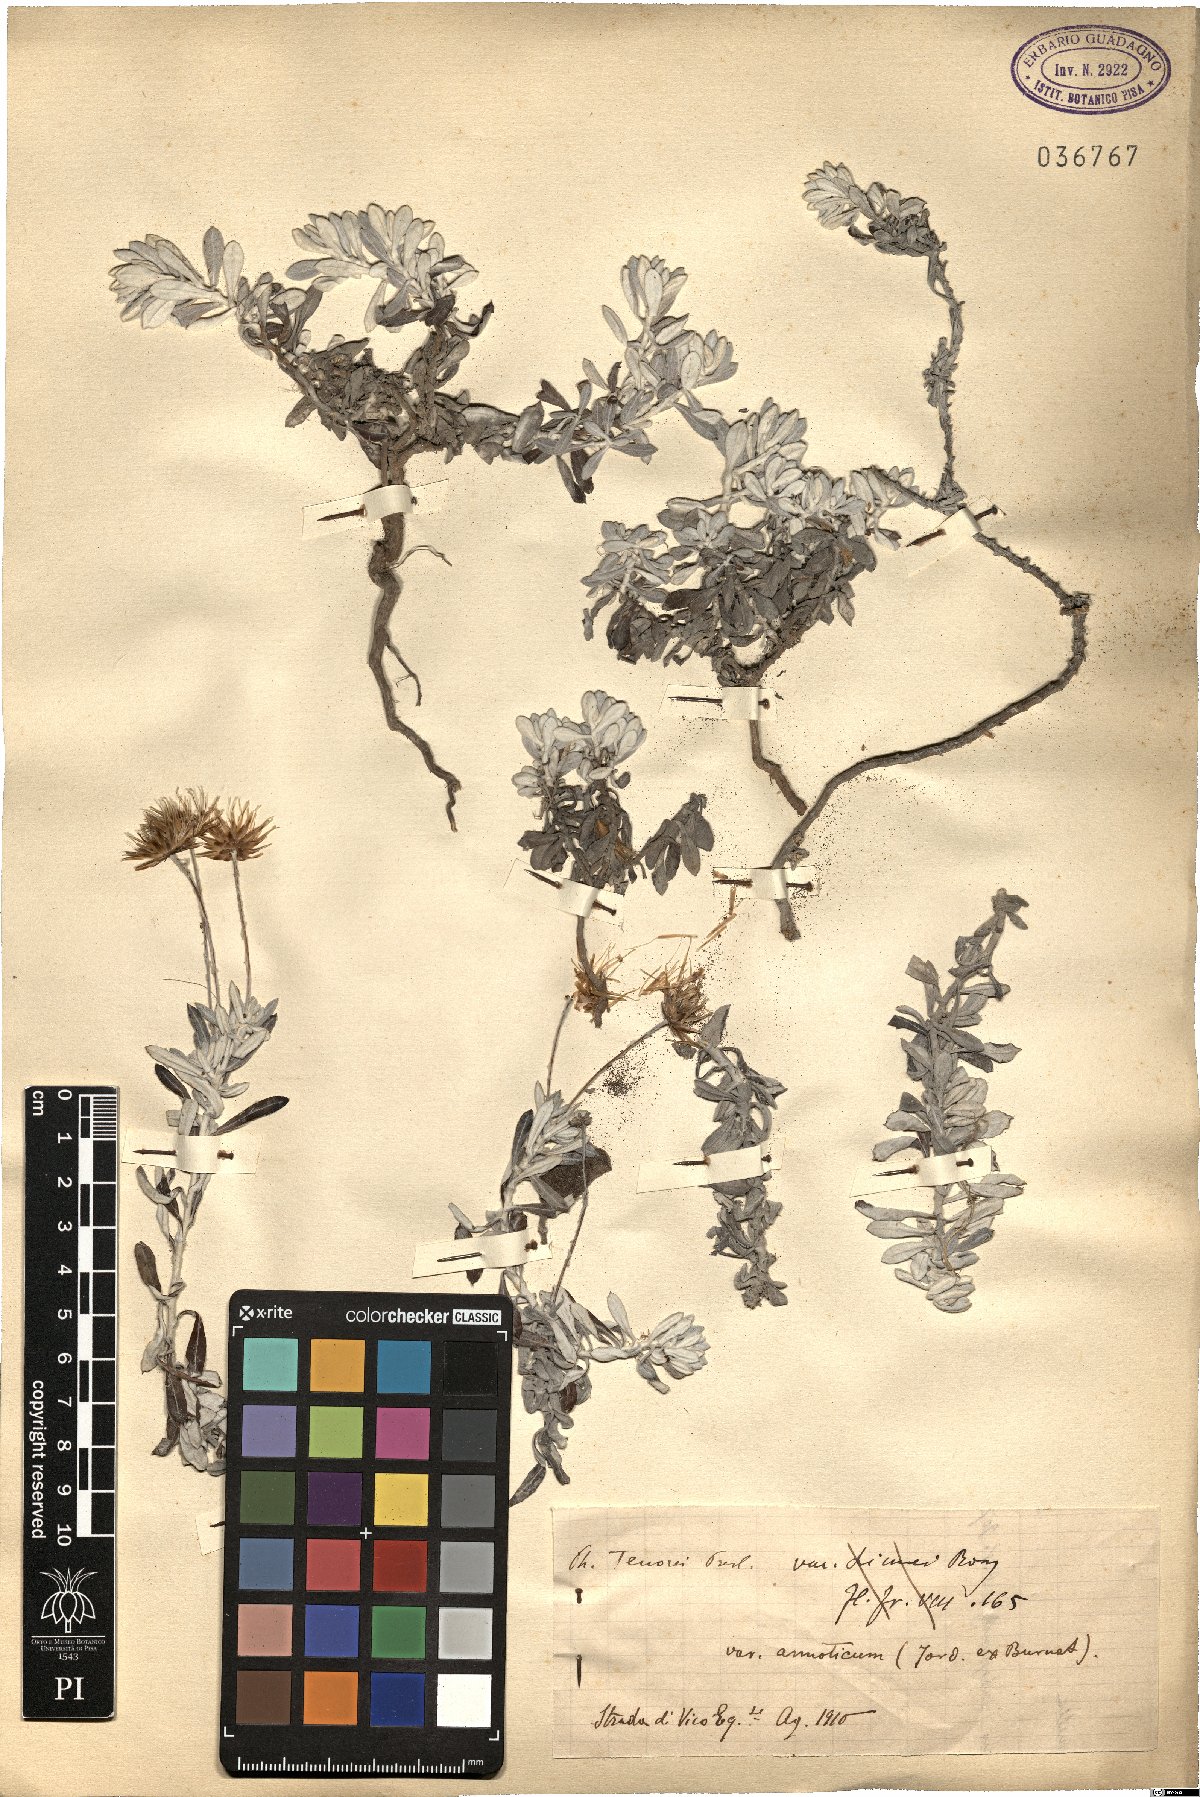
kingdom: Plantae
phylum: Tracheophyta
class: Magnoliopsida
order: Asterales
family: Asteraceae
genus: Phagnalon
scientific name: Phagnalon graecum
